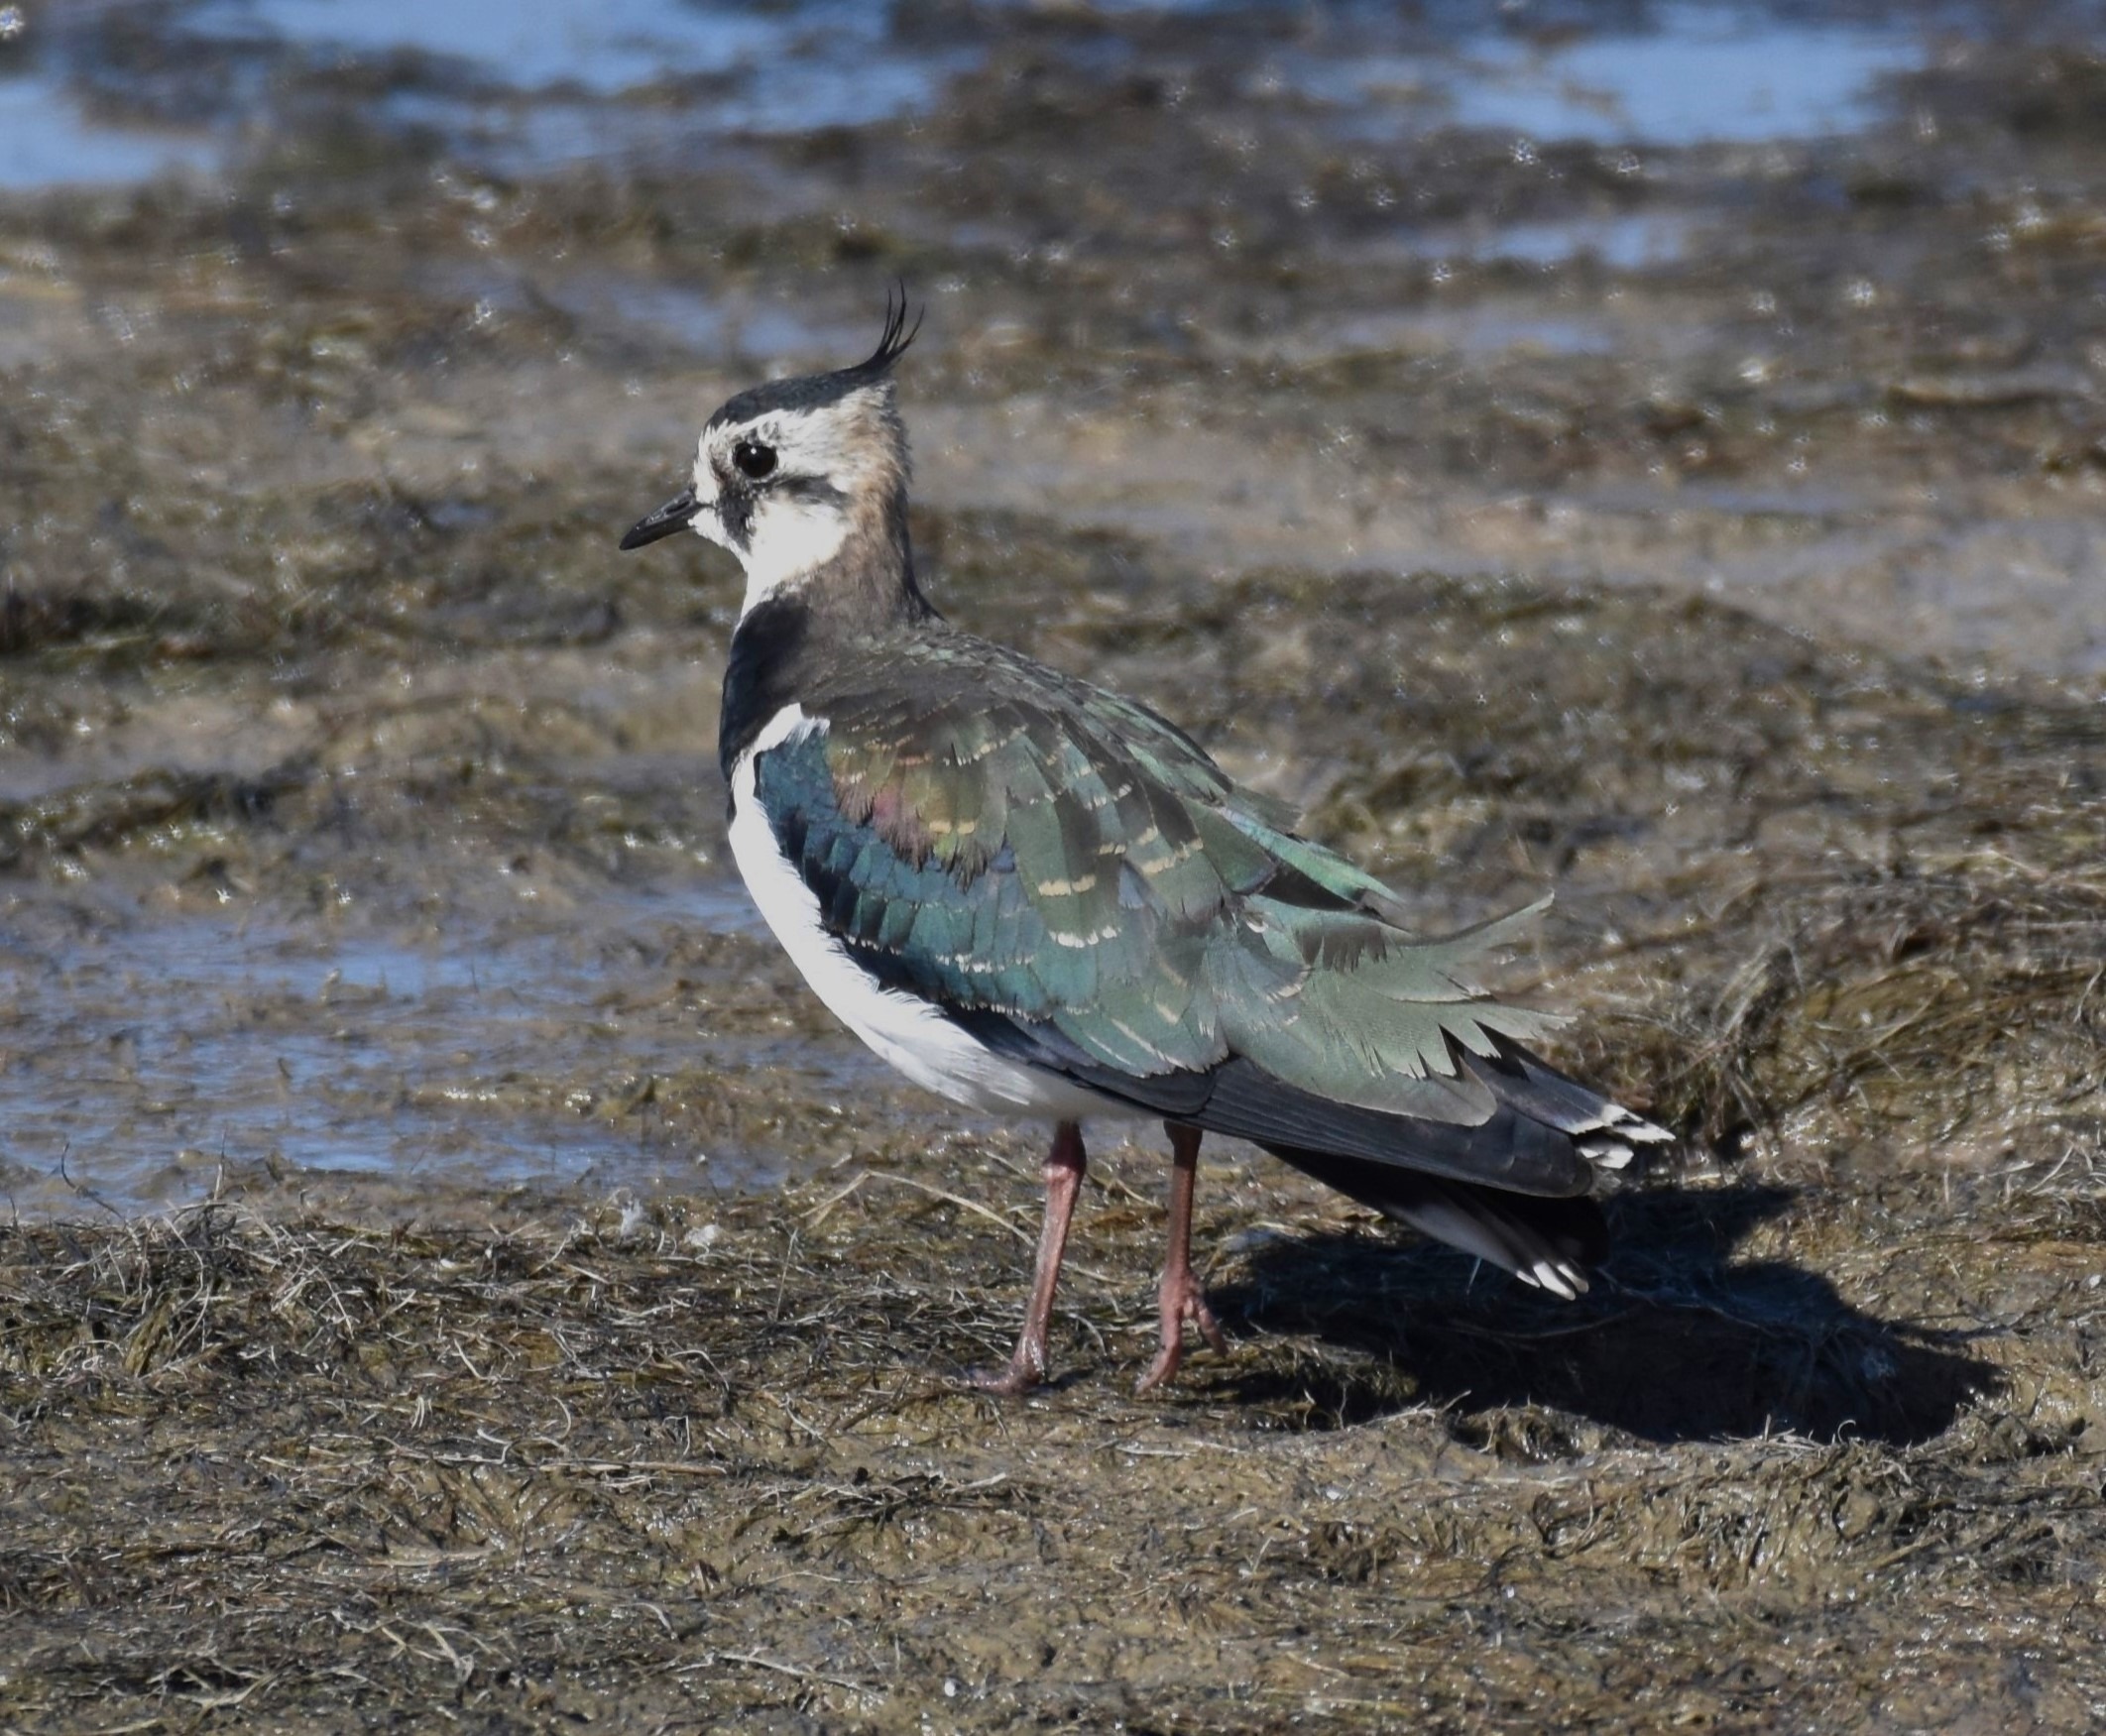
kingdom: Animalia
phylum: Chordata
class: Aves
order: Charadriiformes
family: Charadriidae
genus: Vanellus
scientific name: Vanellus vanellus
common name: Vibe
